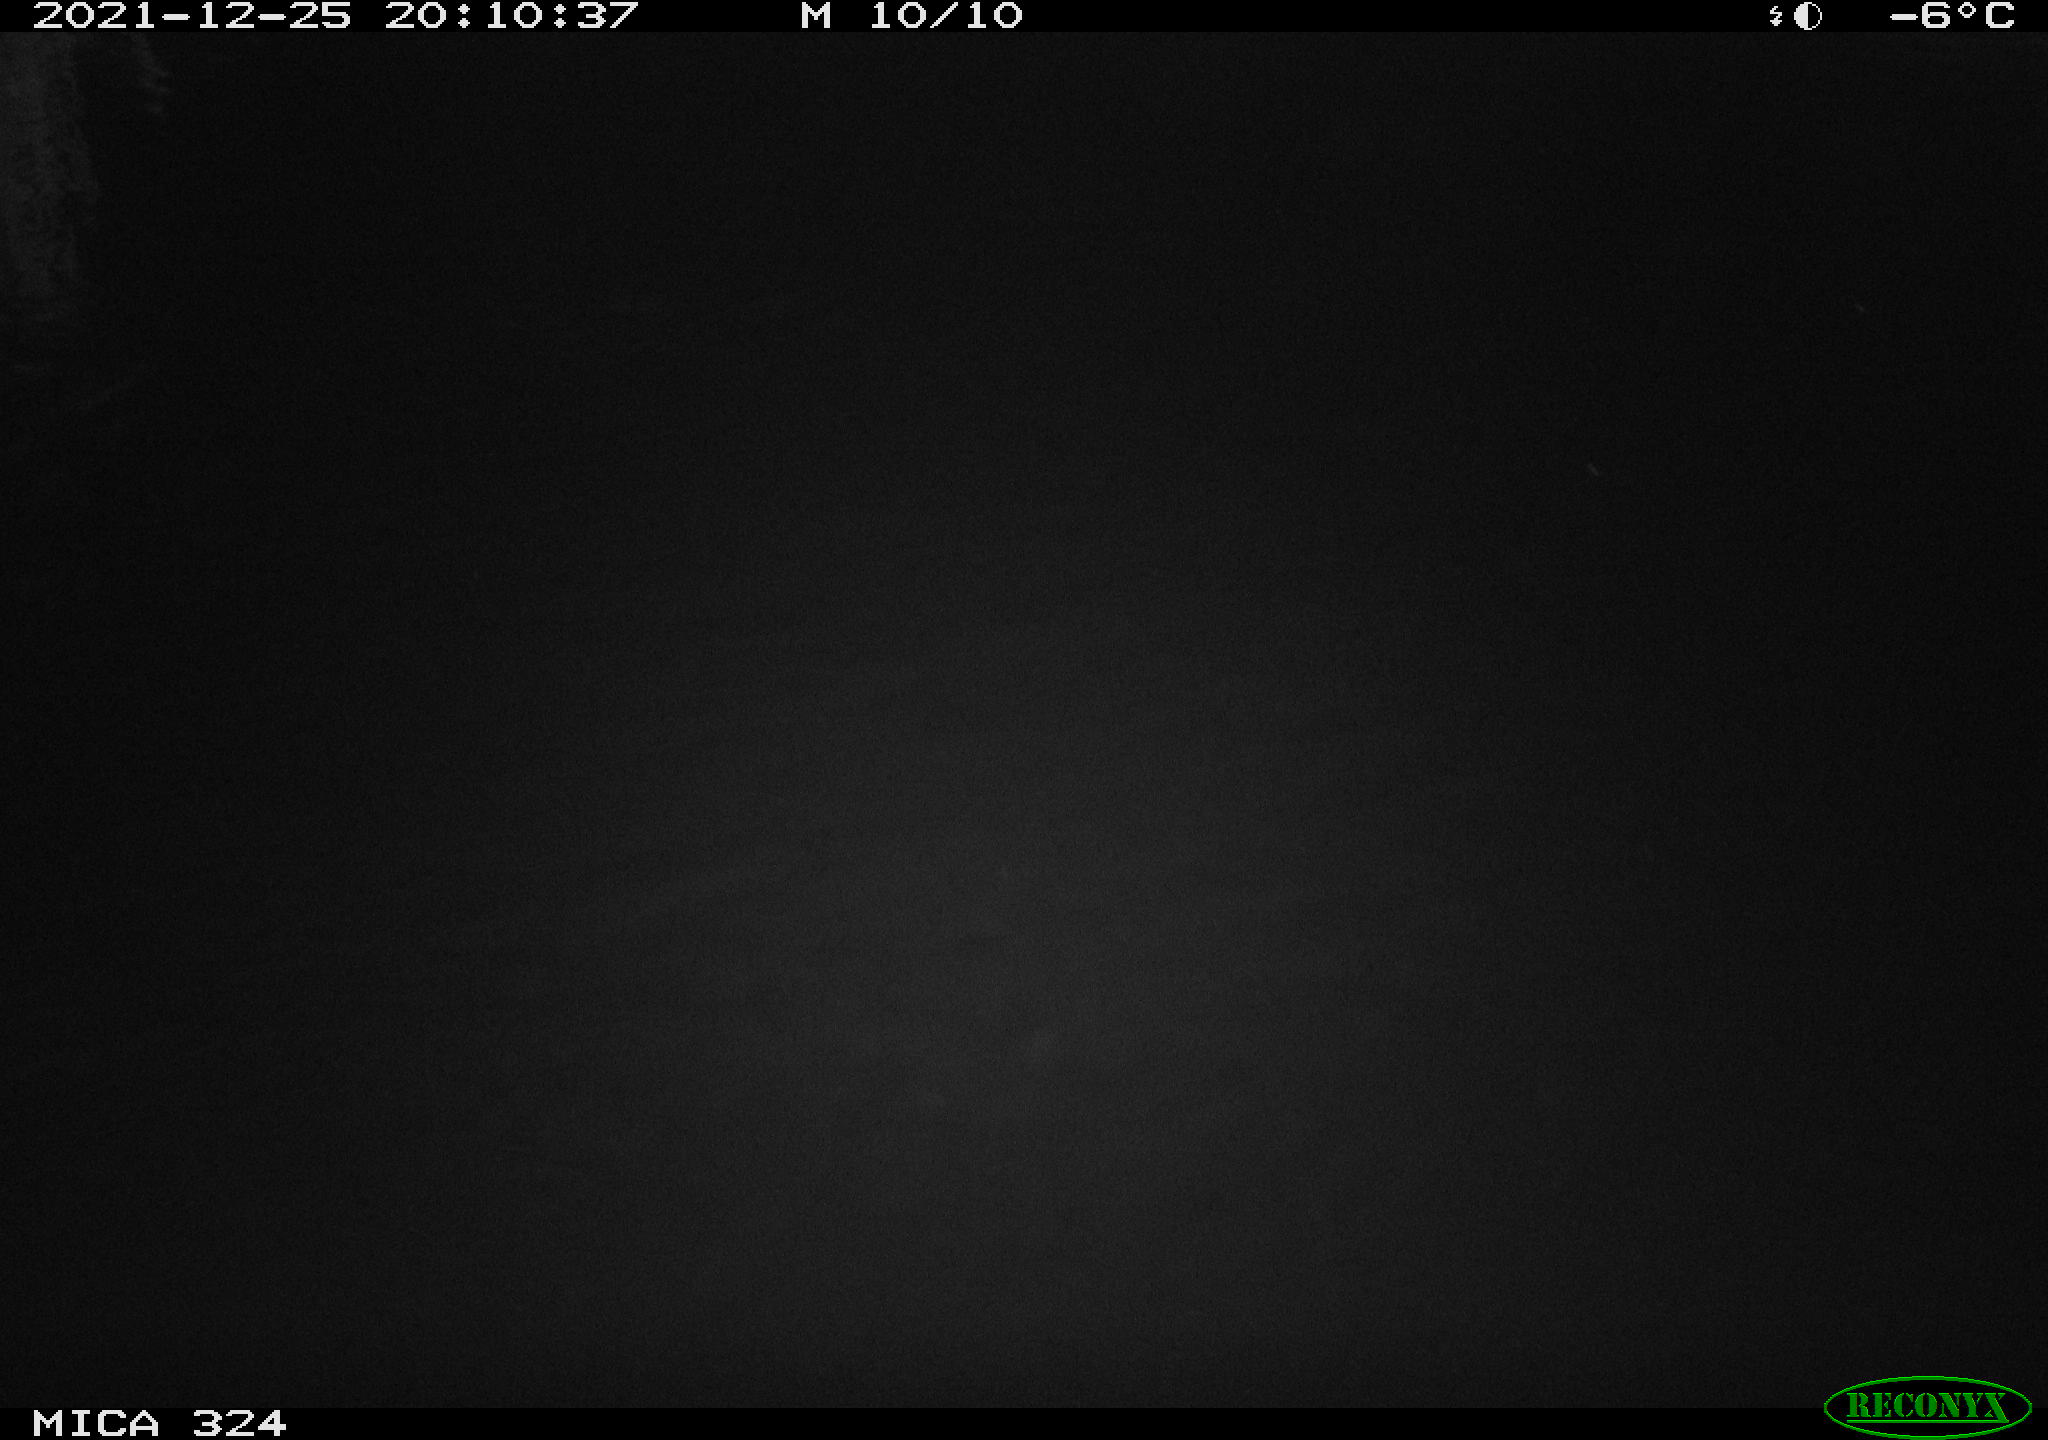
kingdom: Animalia
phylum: Chordata
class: Mammalia
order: Rodentia
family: Cricetidae
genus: Ondatra
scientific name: Ondatra zibethicus
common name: Muskrat
